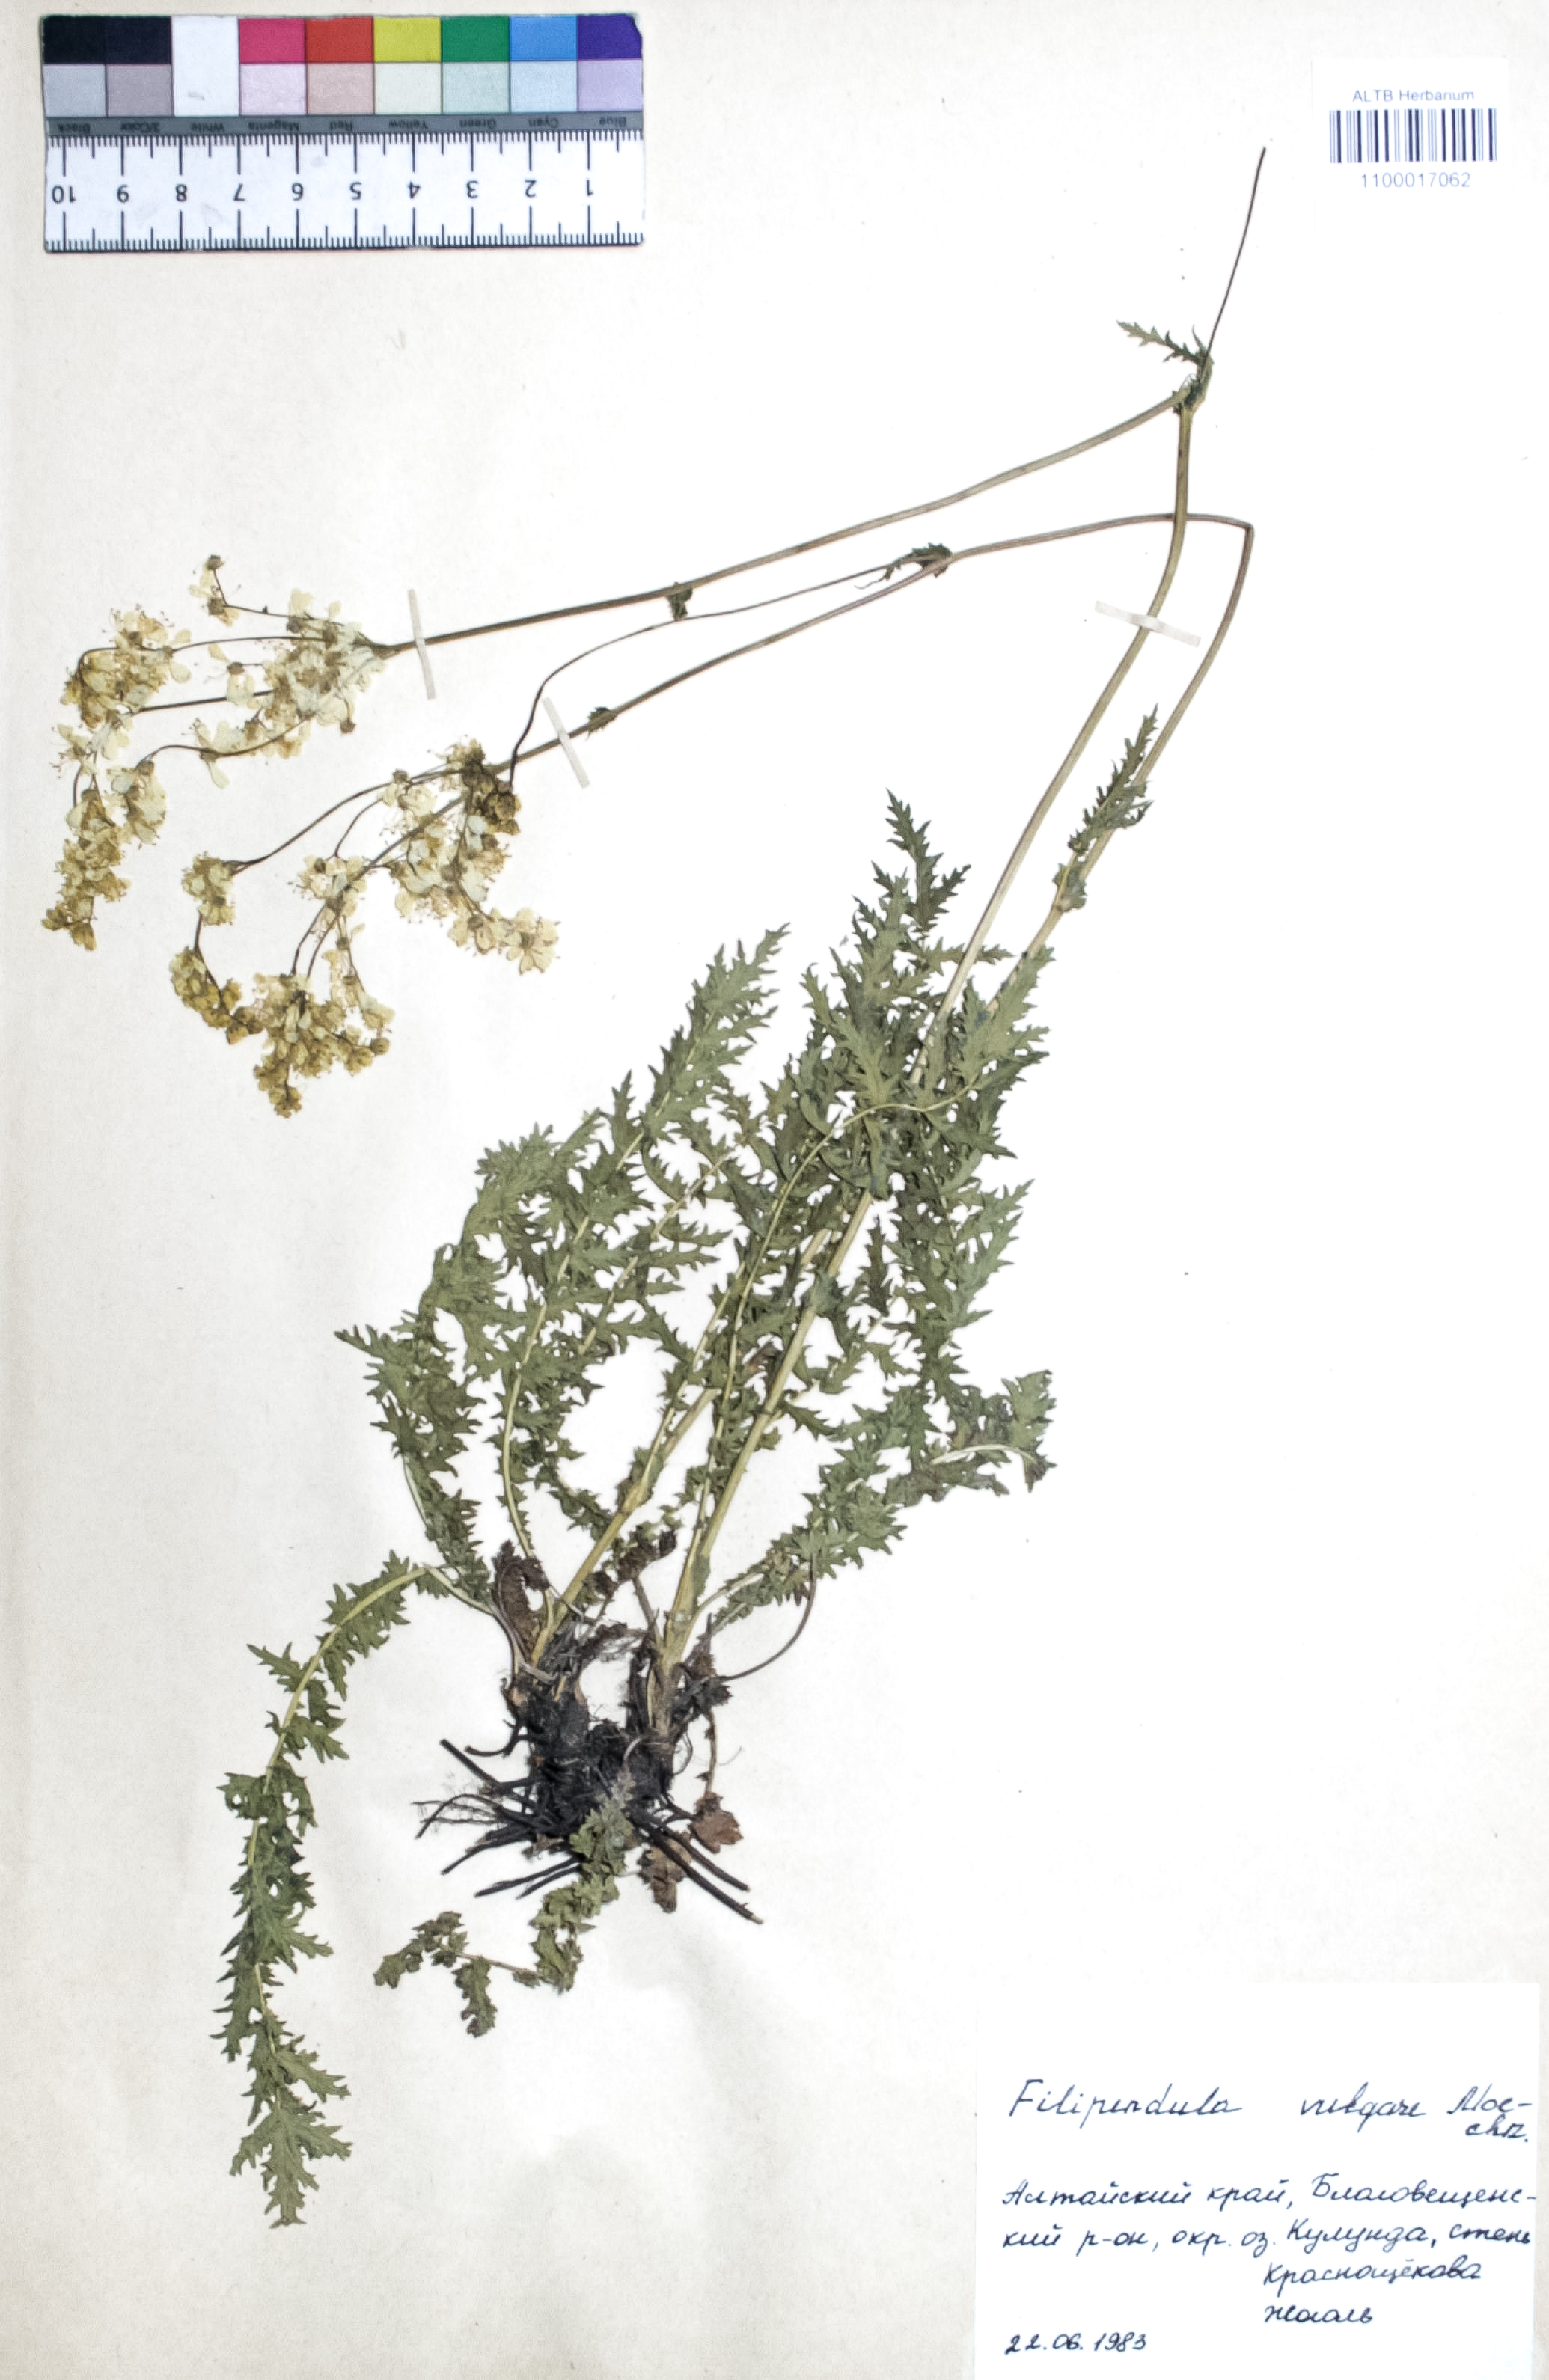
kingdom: Plantae
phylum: Tracheophyta
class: Magnoliopsida
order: Rosales
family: Rosaceae
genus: Filipendula
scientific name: Filipendula vulgaris
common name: Dropwort
